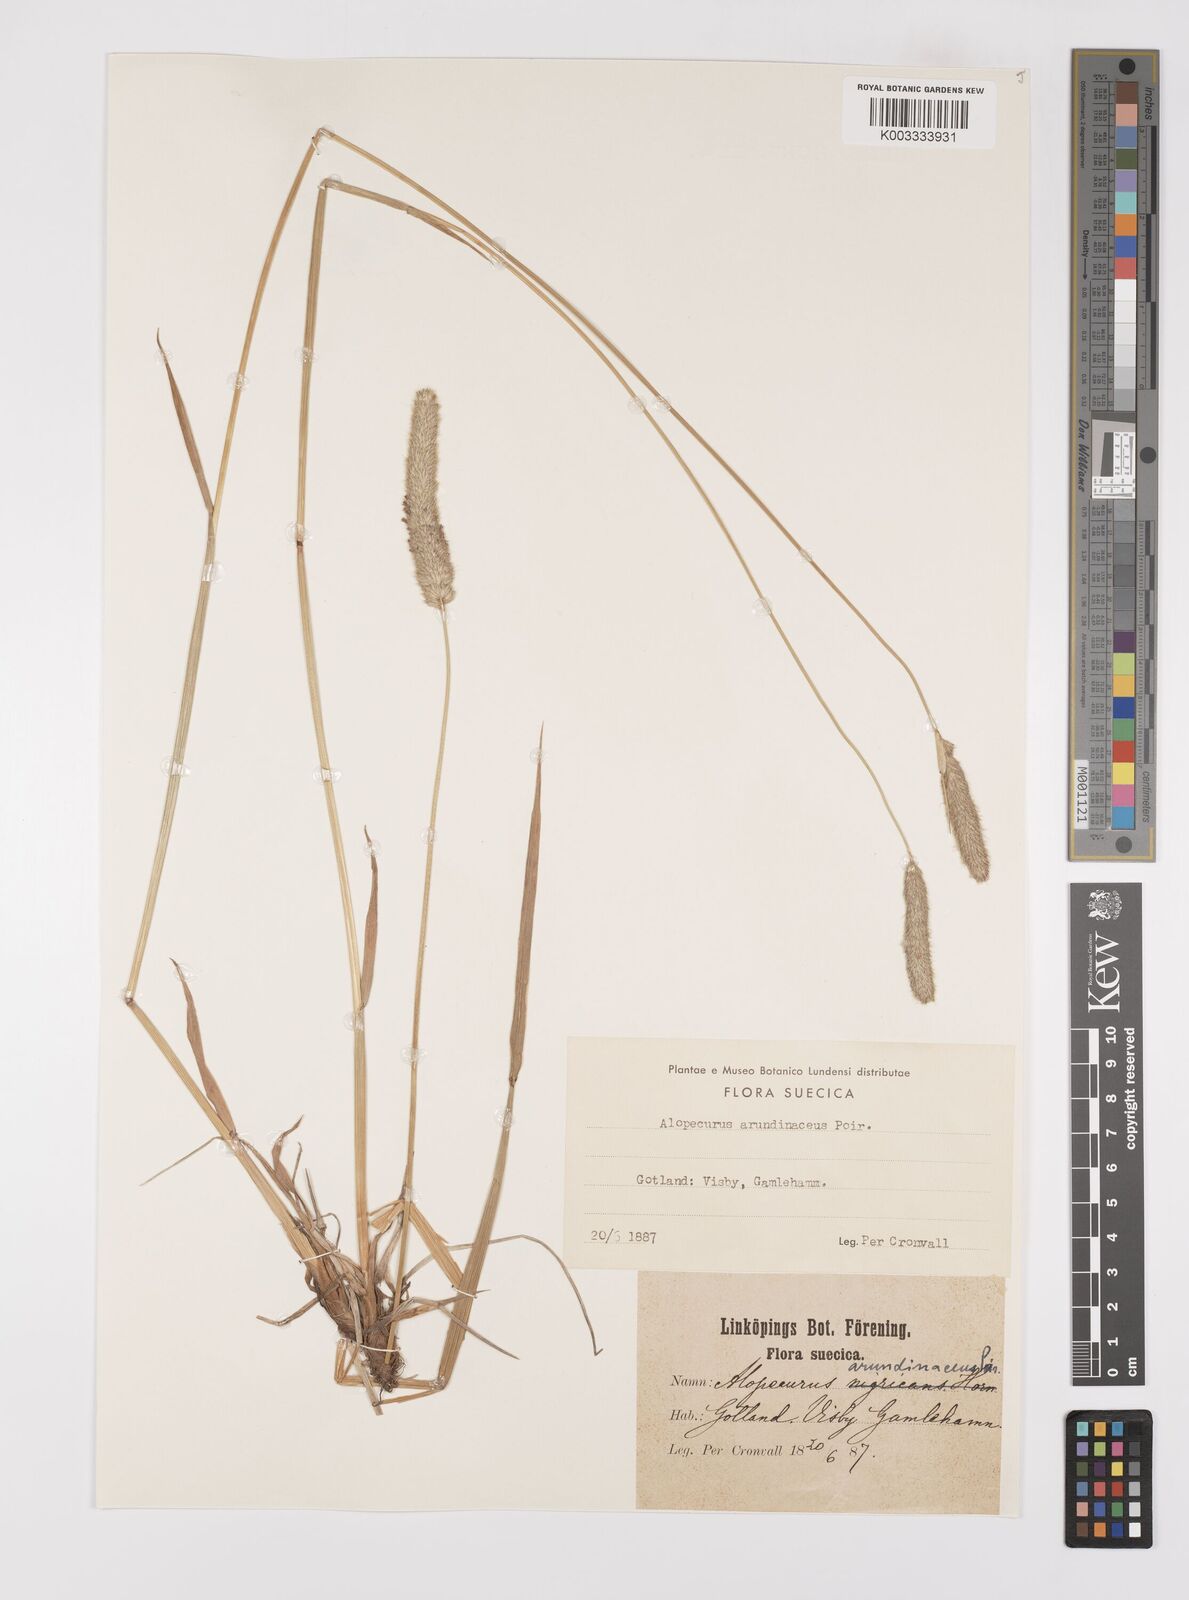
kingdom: Plantae
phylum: Tracheophyta
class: Liliopsida
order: Poales
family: Poaceae
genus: Alopecurus
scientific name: Alopecurus arundinaceus
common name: Creeping meadow foxtail
